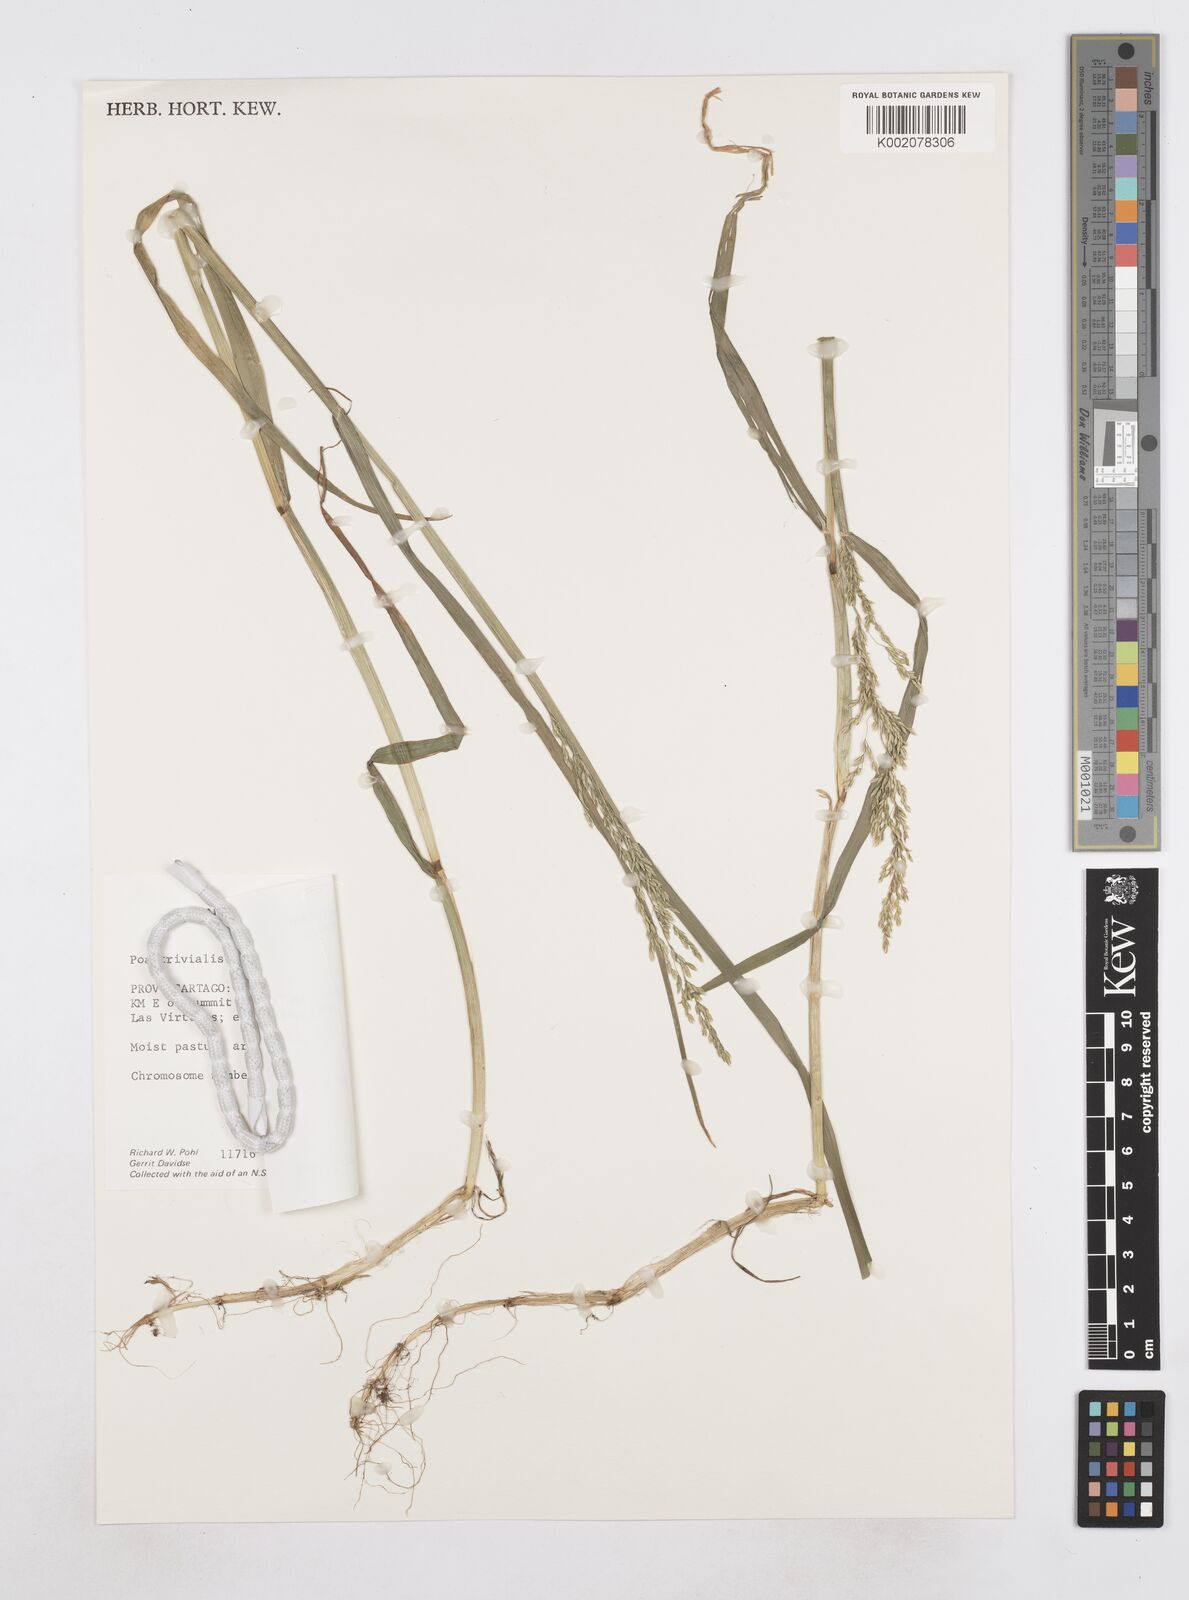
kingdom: Plantae
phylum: Tracheophyta
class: Liliopsida
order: Poales
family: Poaceae
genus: Poa
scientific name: Poa trivialis
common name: Rough bluegrass
